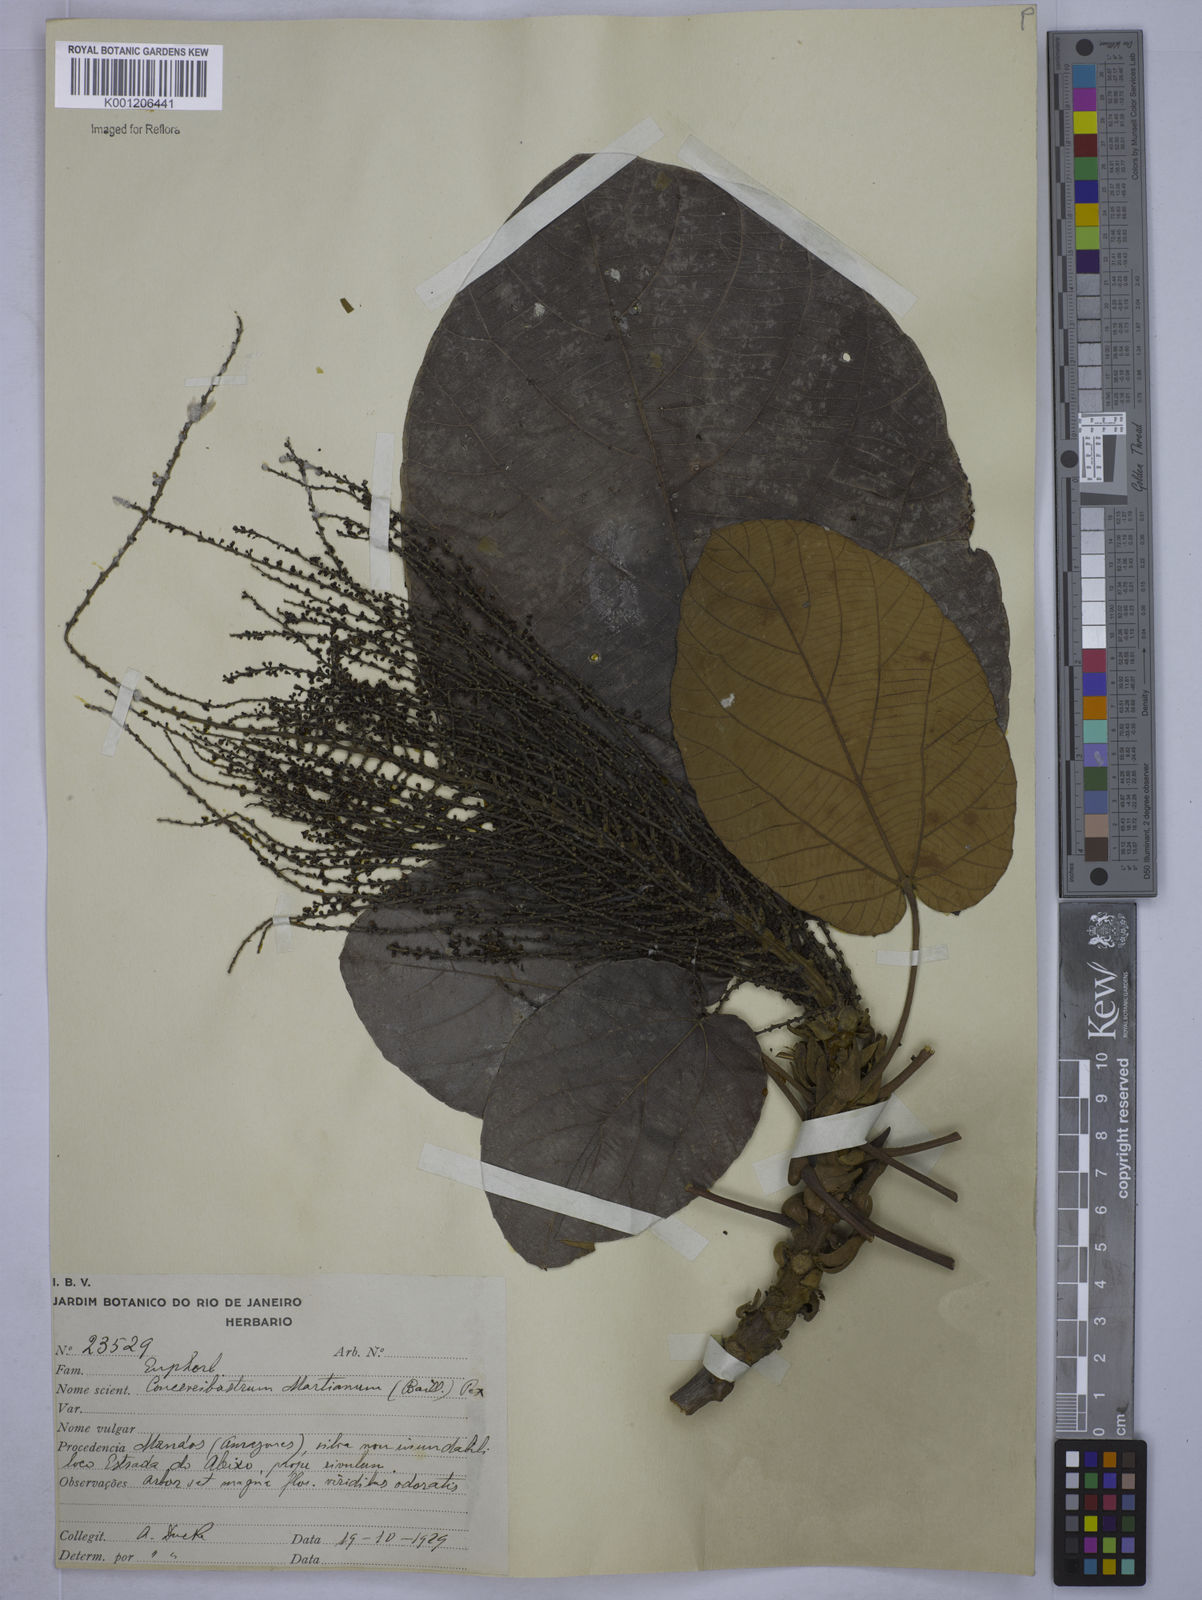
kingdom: Plantae
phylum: Tracheophyta
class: Magnoliopsida
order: Malpighiales
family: Euphorbiaceae
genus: Conceveiba
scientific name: Conceveiba martiana
